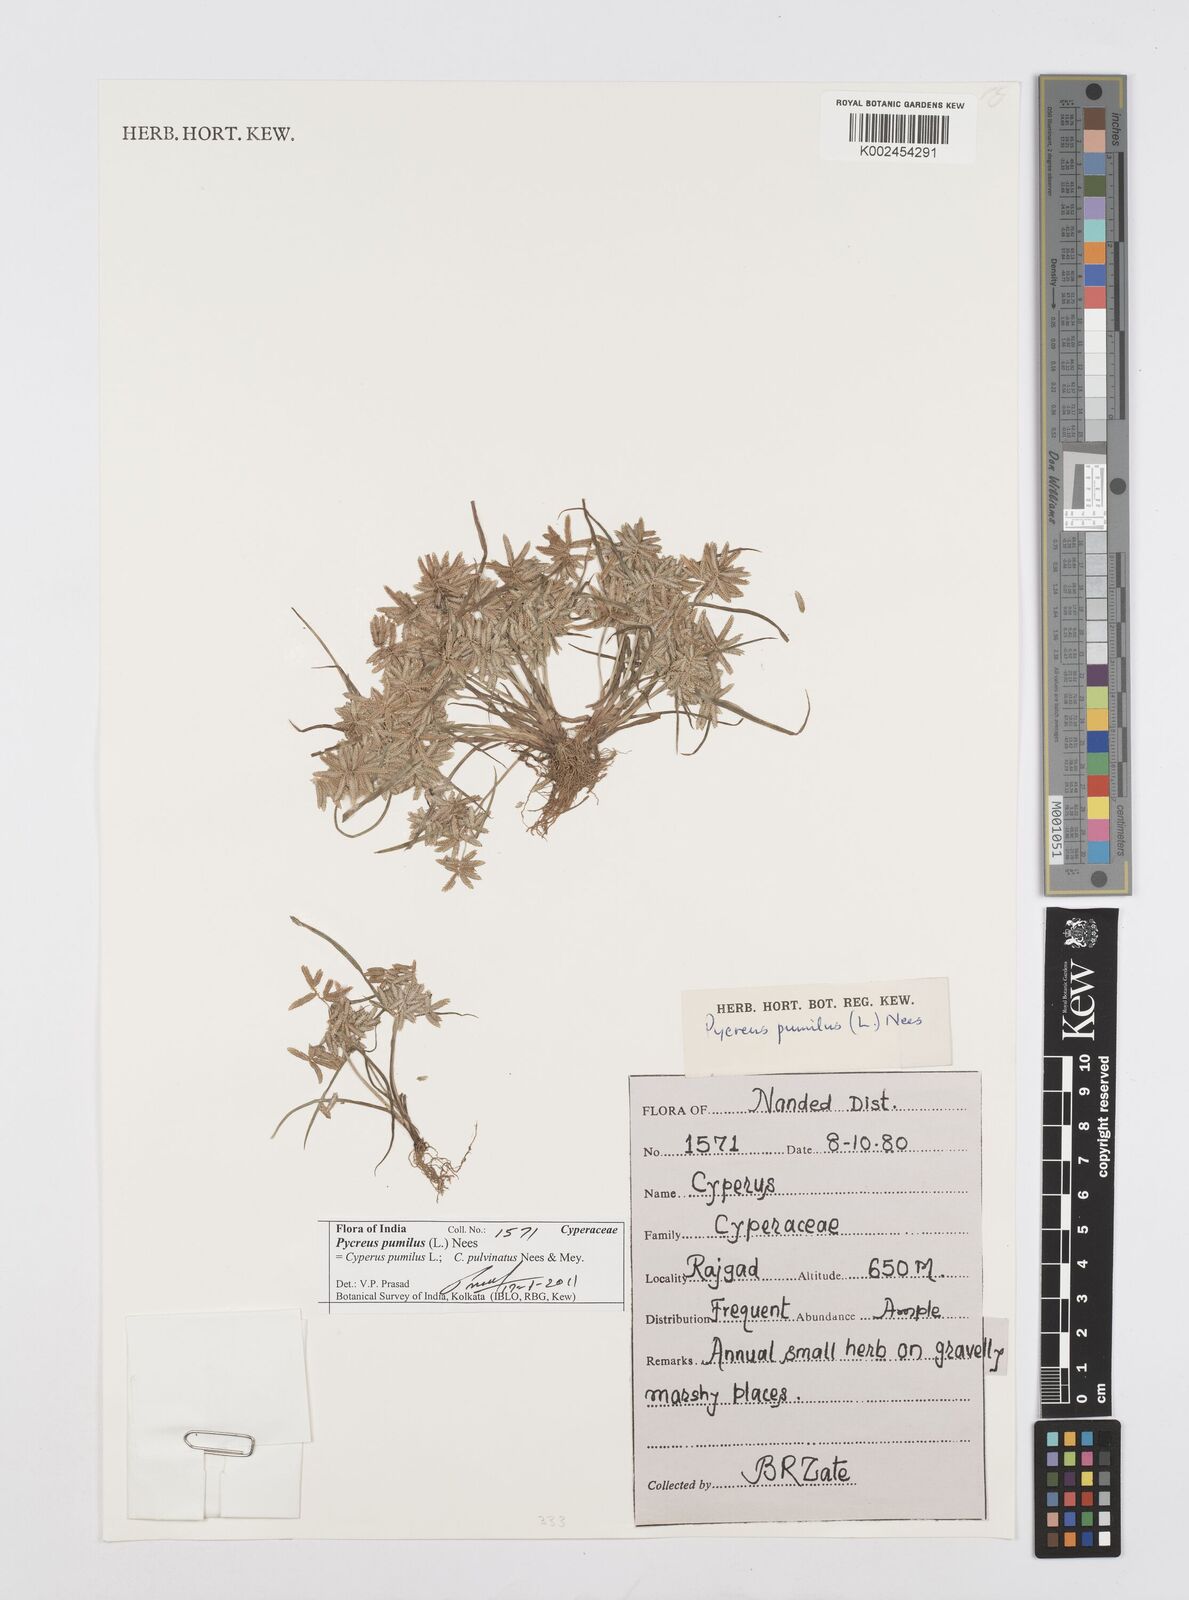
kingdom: Plantae
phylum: Tracheophyta
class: Liliopsida
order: Poales
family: Cyperaceae
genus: Cyperus
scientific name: Cyperus pumilus
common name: Low flatsedge
